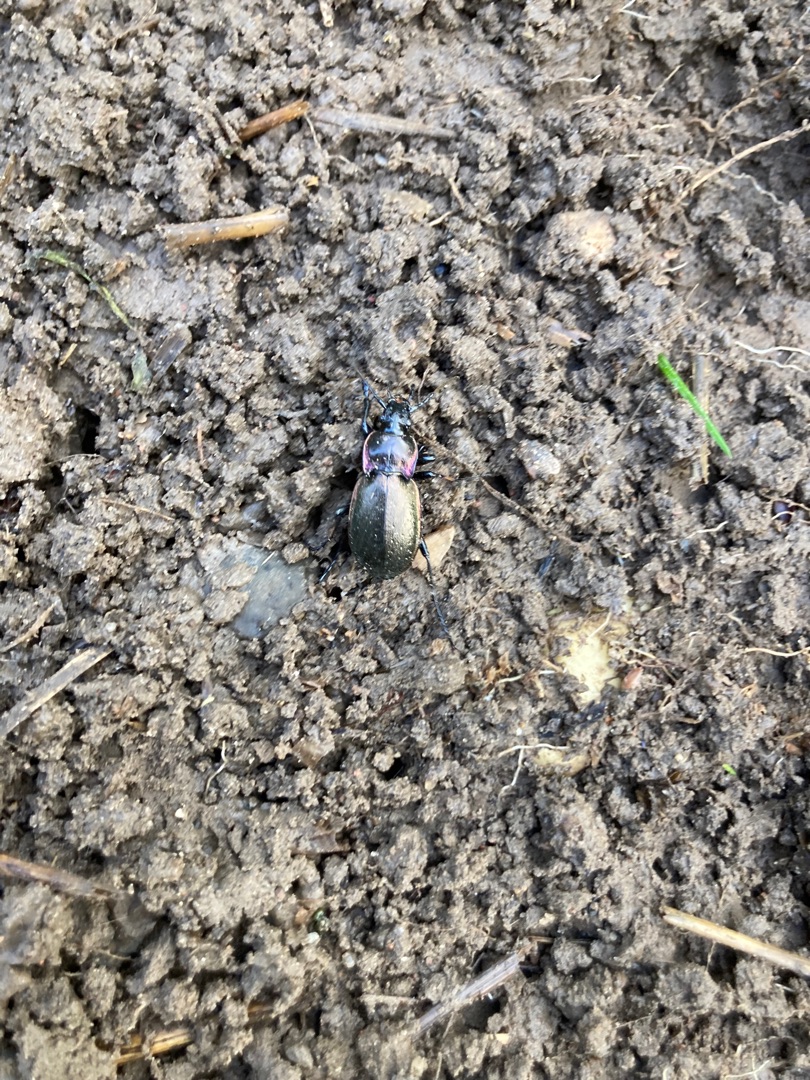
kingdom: Animalia
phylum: Arthropoda
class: Insecta
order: Coleoptera
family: Carabidae
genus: Carabus
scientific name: Carabus nemoralis
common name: Kratløber
